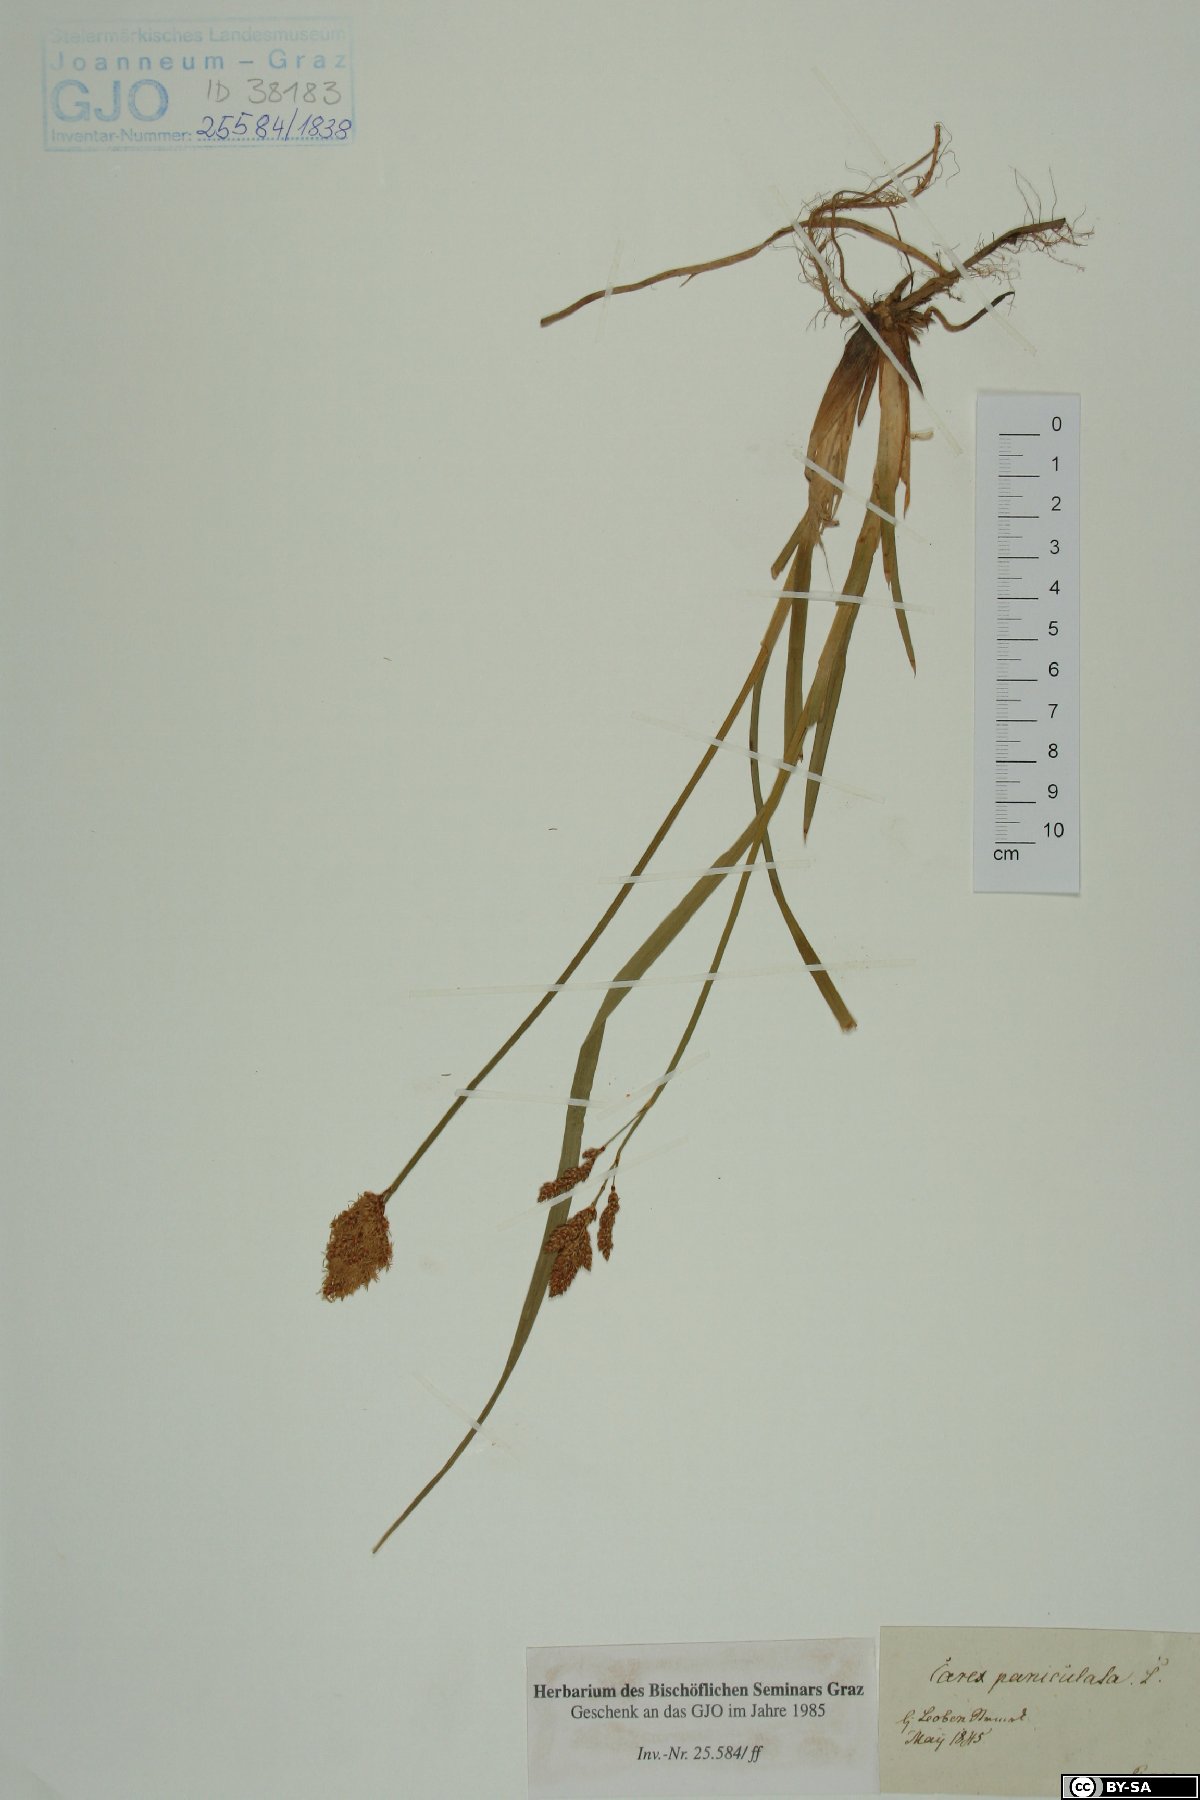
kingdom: Plantae
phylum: Tracheophyta
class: Liliopsida
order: Poales
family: Cyperaceae
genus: Carex
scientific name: Carex paniculata
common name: Greater tussock-sedge
